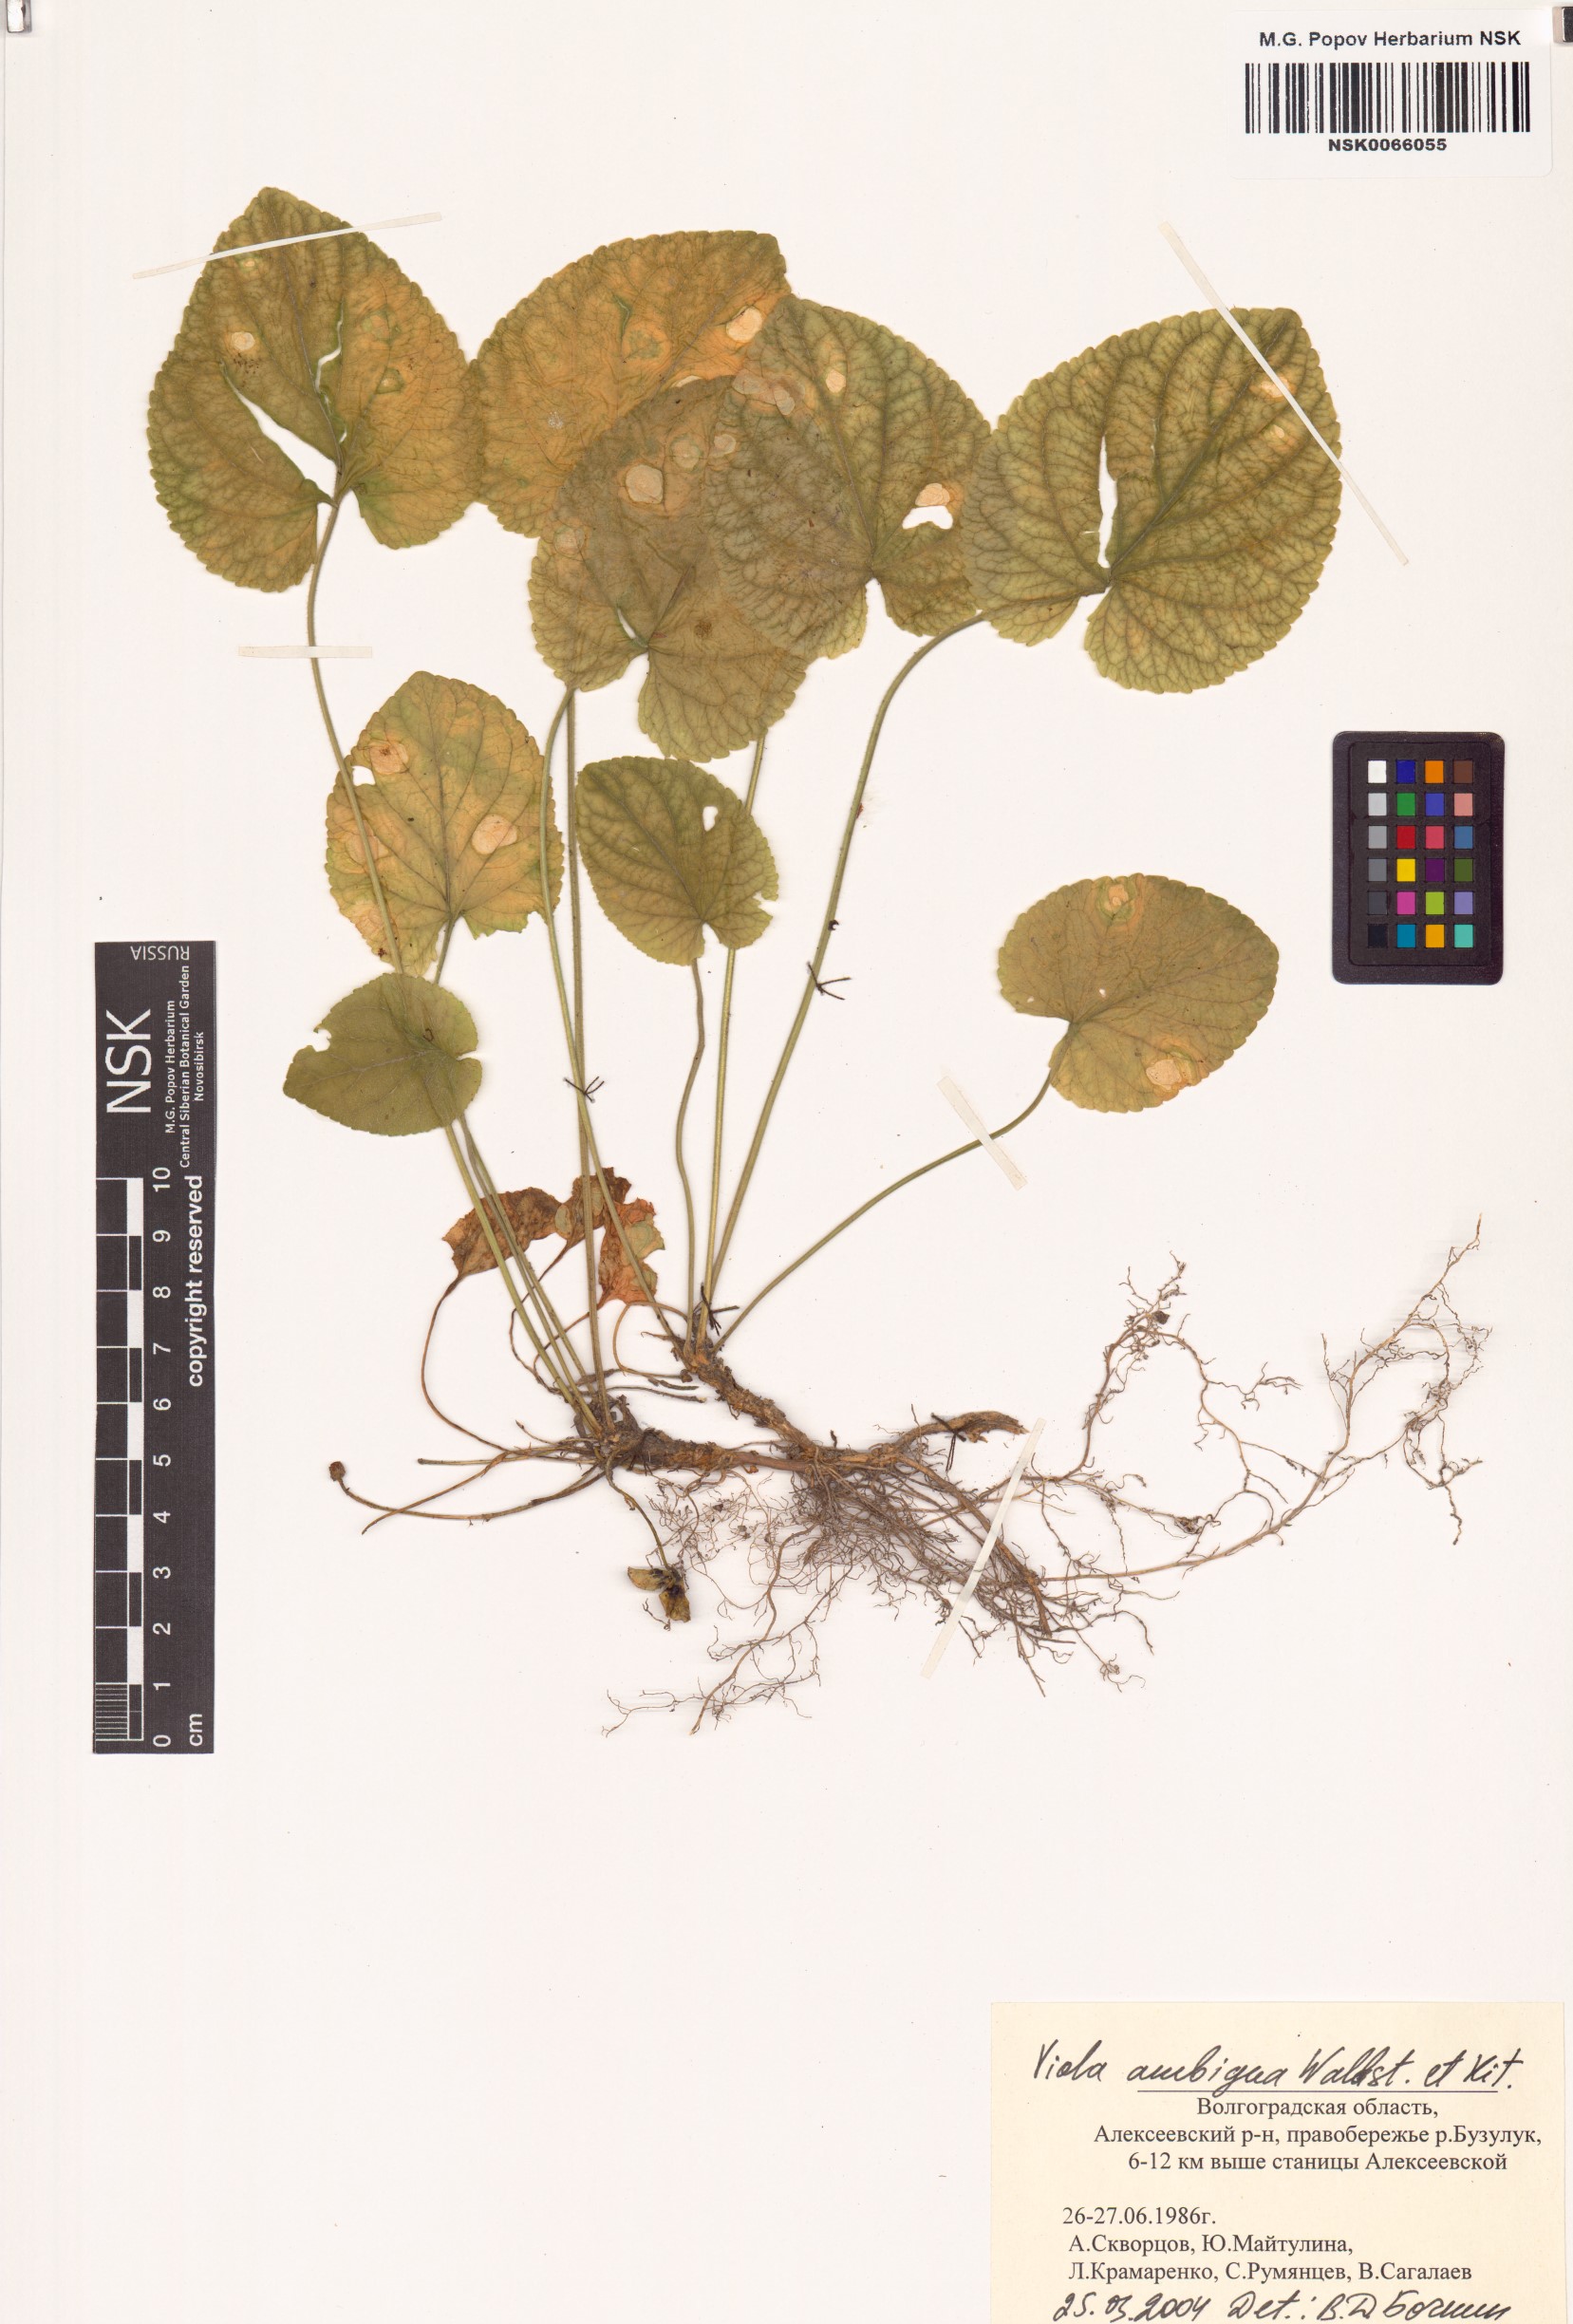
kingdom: Plantae
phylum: Tracheophyta
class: Magnoliopsida
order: Malpighiales
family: Violaceae
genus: Viola
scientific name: Viola ambigua
